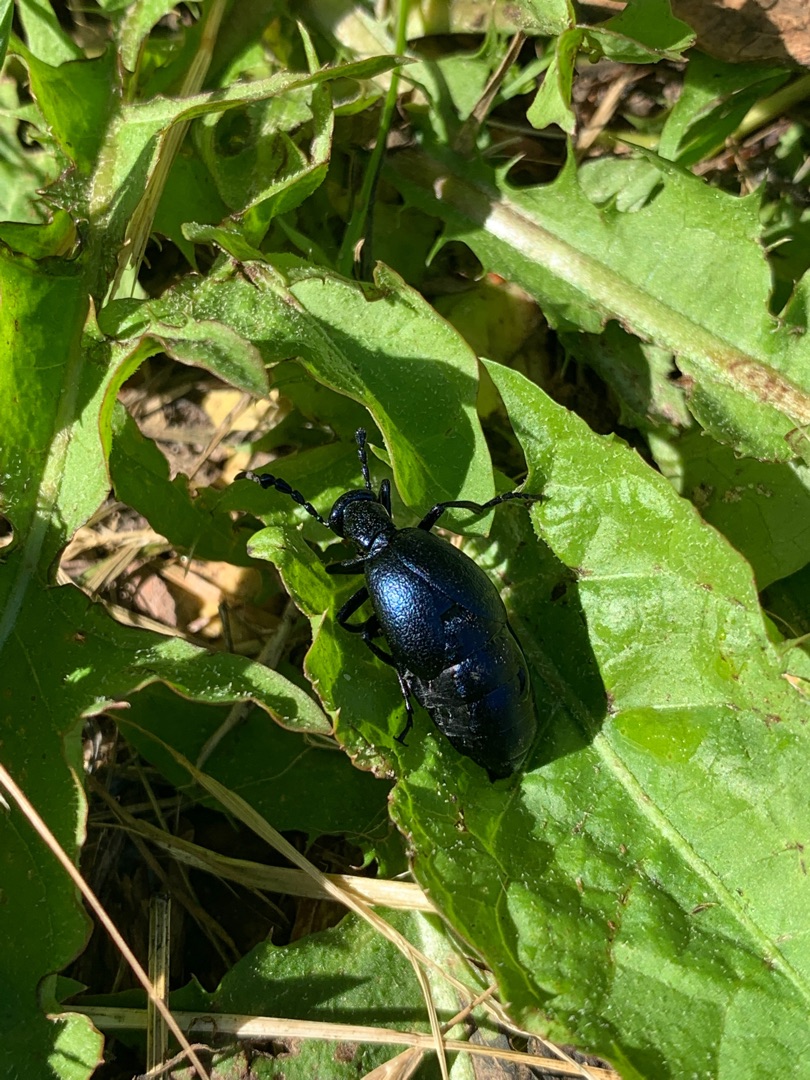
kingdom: Animalia
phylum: Arthropoda
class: Insecta
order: Coleoptera
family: Meloidae
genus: Meloe
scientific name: Meloe violaceus
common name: Blå oliebille
